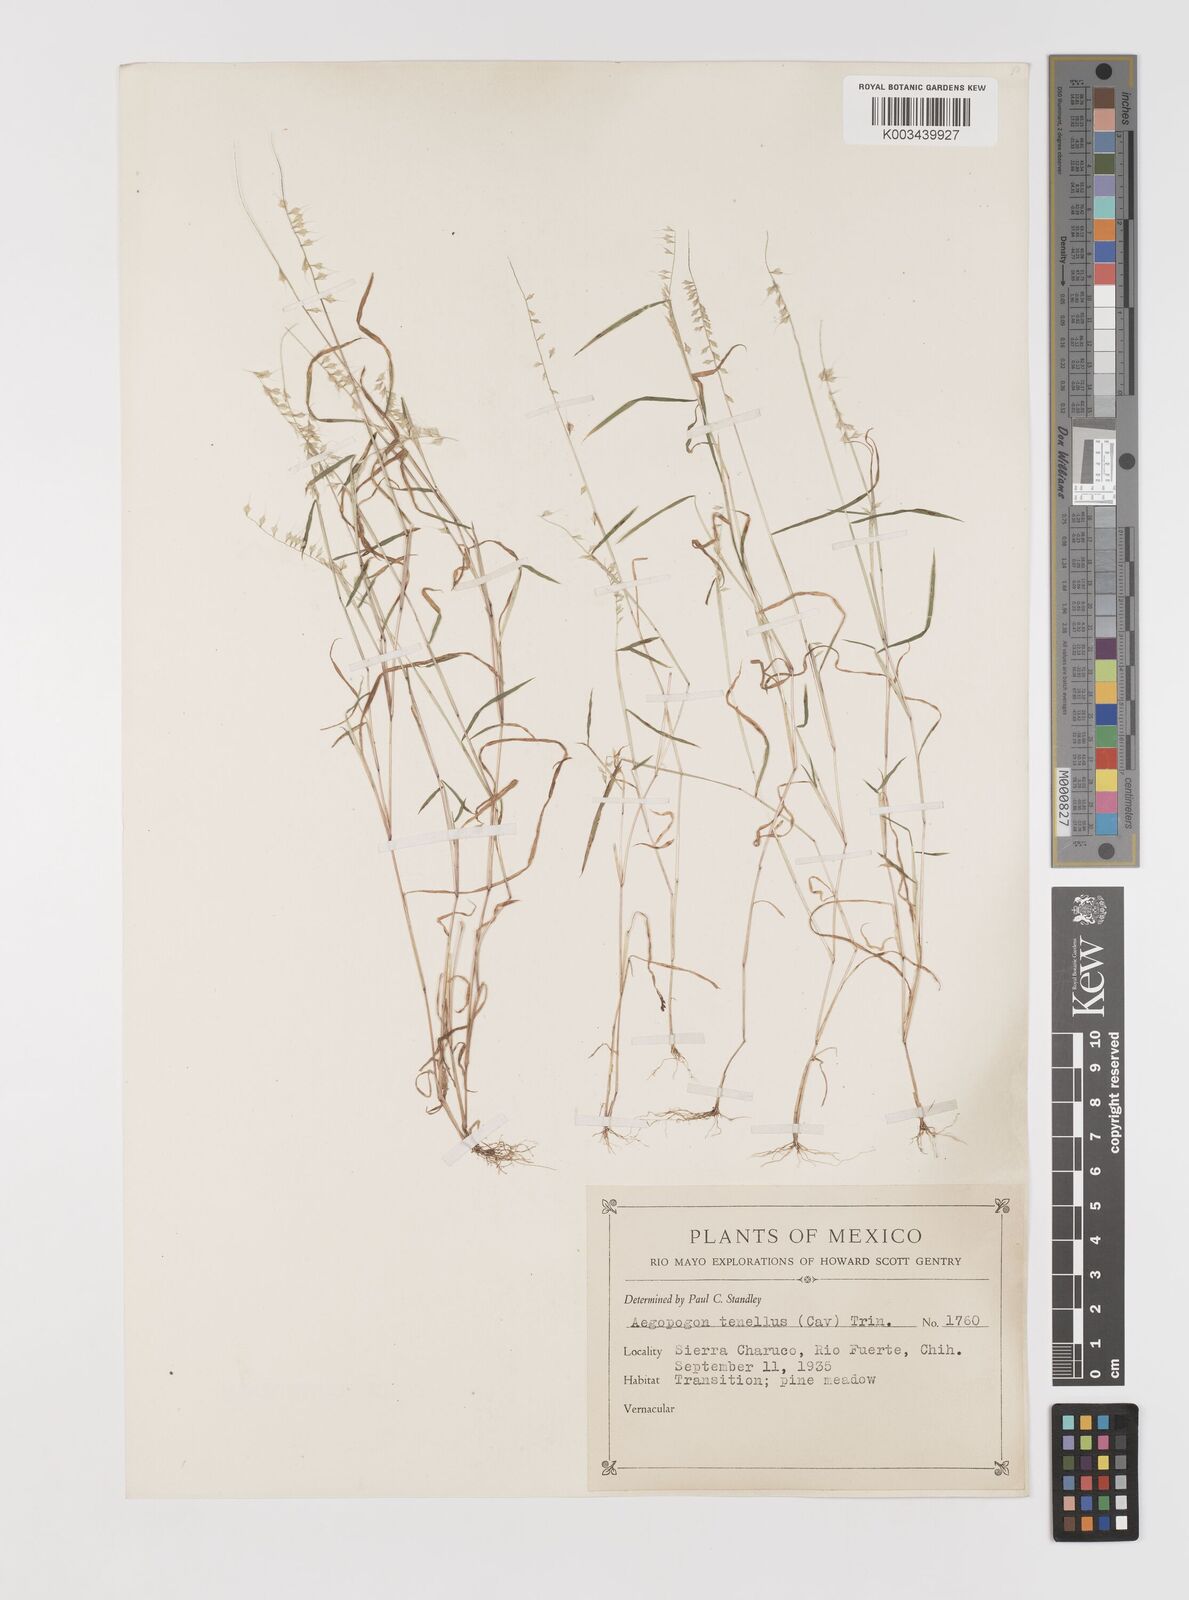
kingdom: Plantae
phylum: Tracheophyta
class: Liliopsida
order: Poales
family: Poaceae
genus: Muhlenbergia
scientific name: Muhlenbergia uniseta
